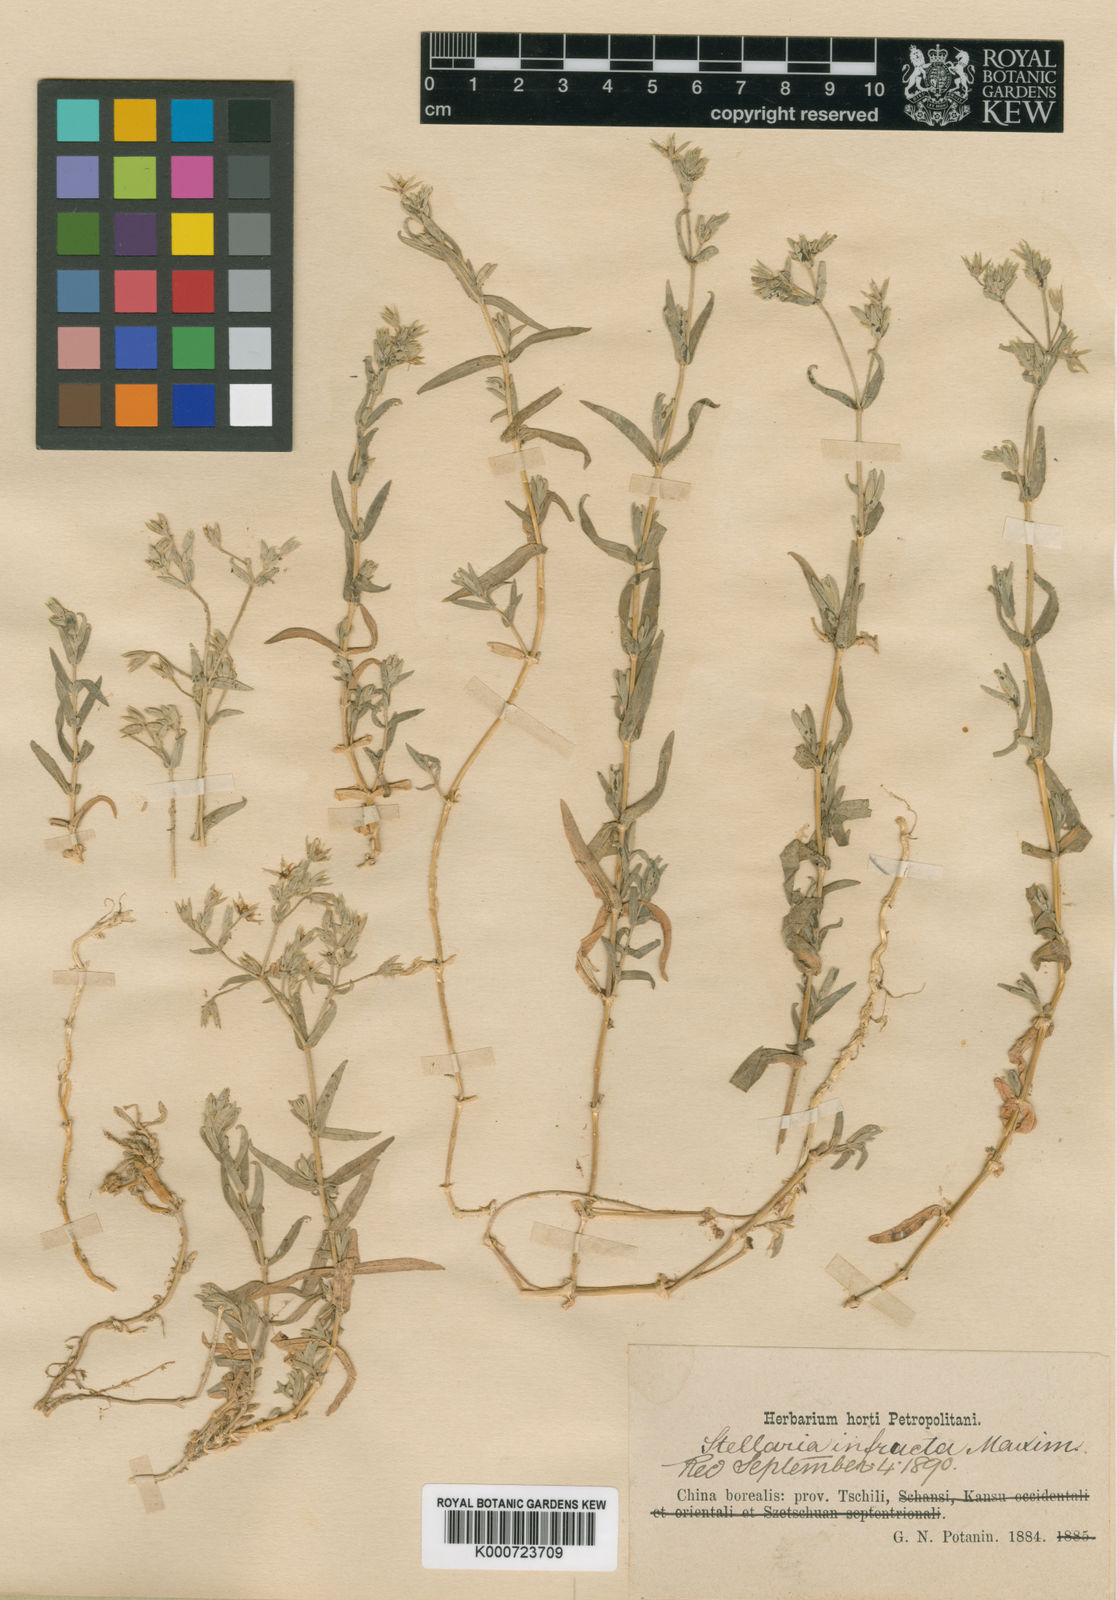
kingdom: Plantae
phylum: Tracheophyta
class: Magnoliopsida
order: Caryophyllales
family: Caryophyllaceae
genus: Stellaria
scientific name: Stellaria infracta
